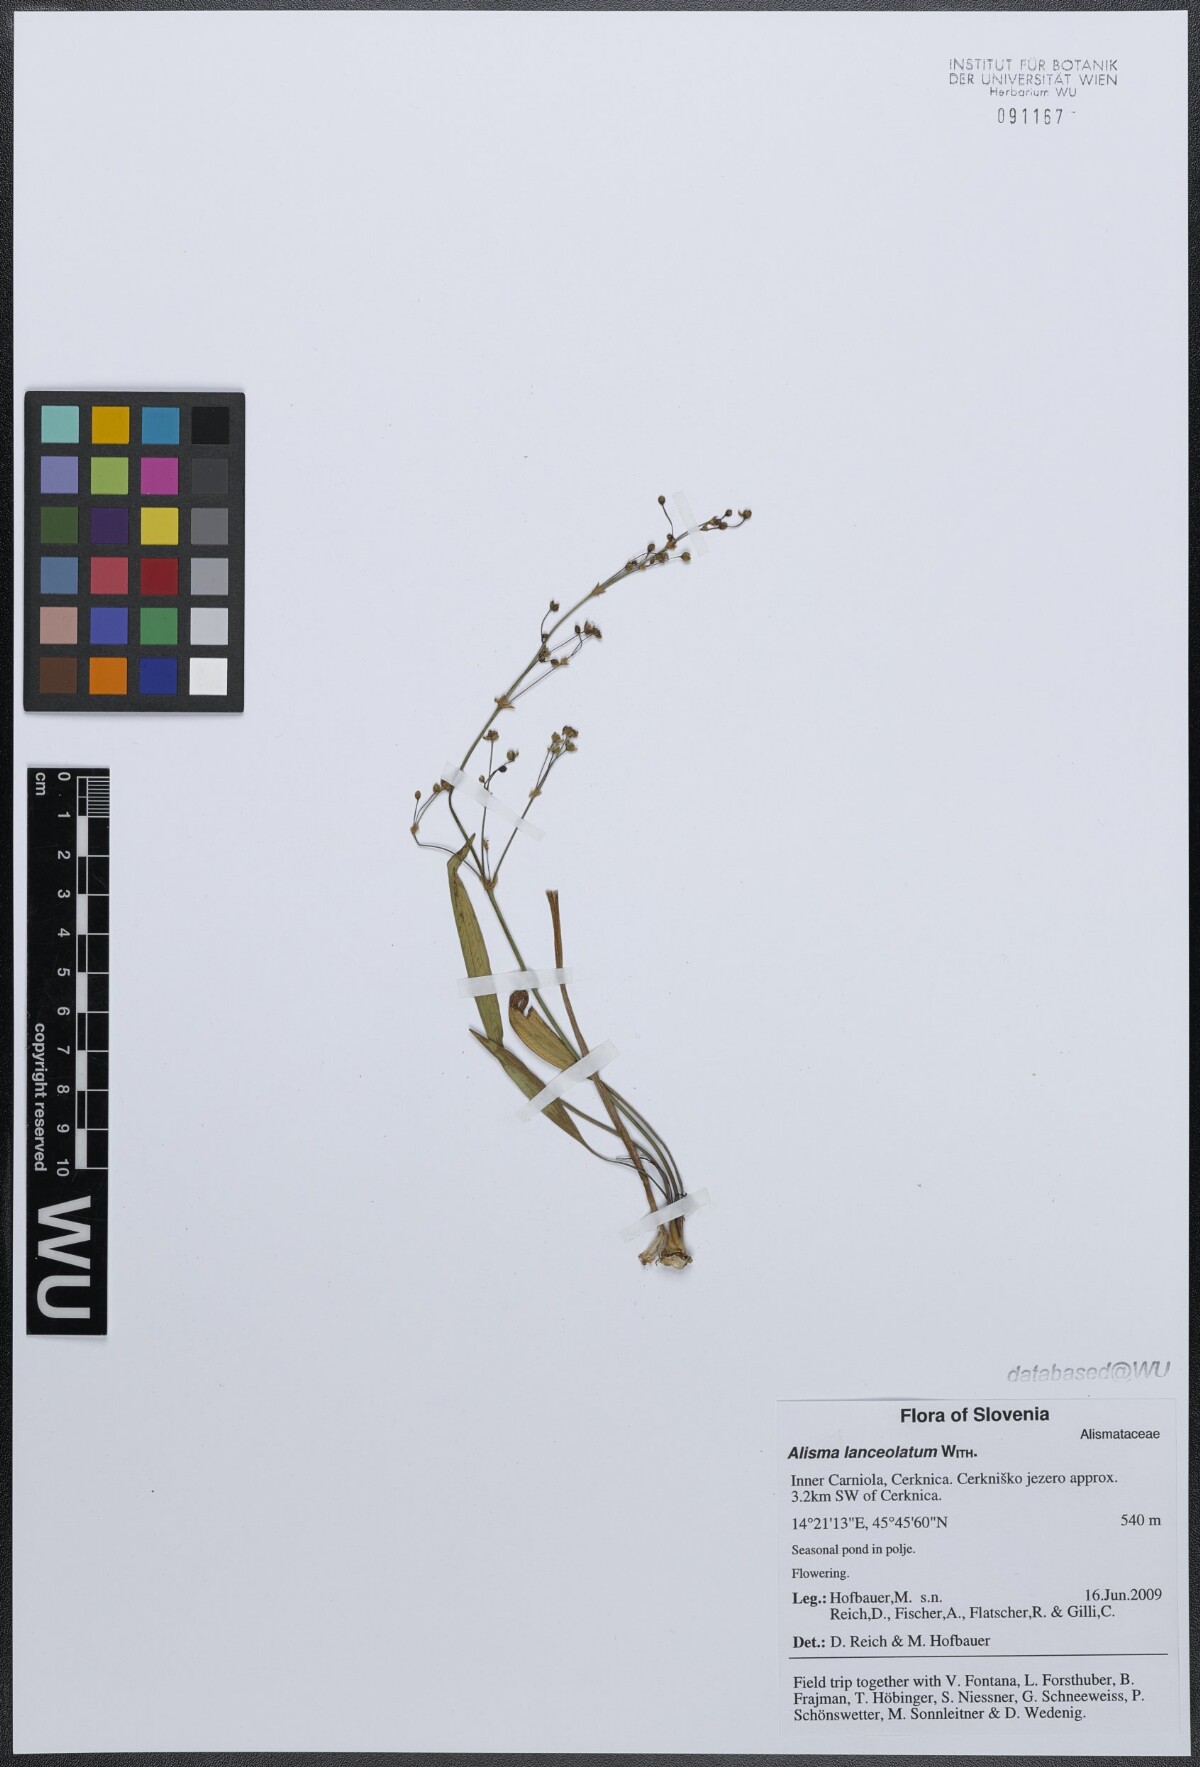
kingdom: Plantae
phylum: Tracheophyta
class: Liliopsida
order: Alismatales
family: Alismataceae
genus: Alisma
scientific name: Alisma lanceolatum
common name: Narrow-leaved water-plantain
